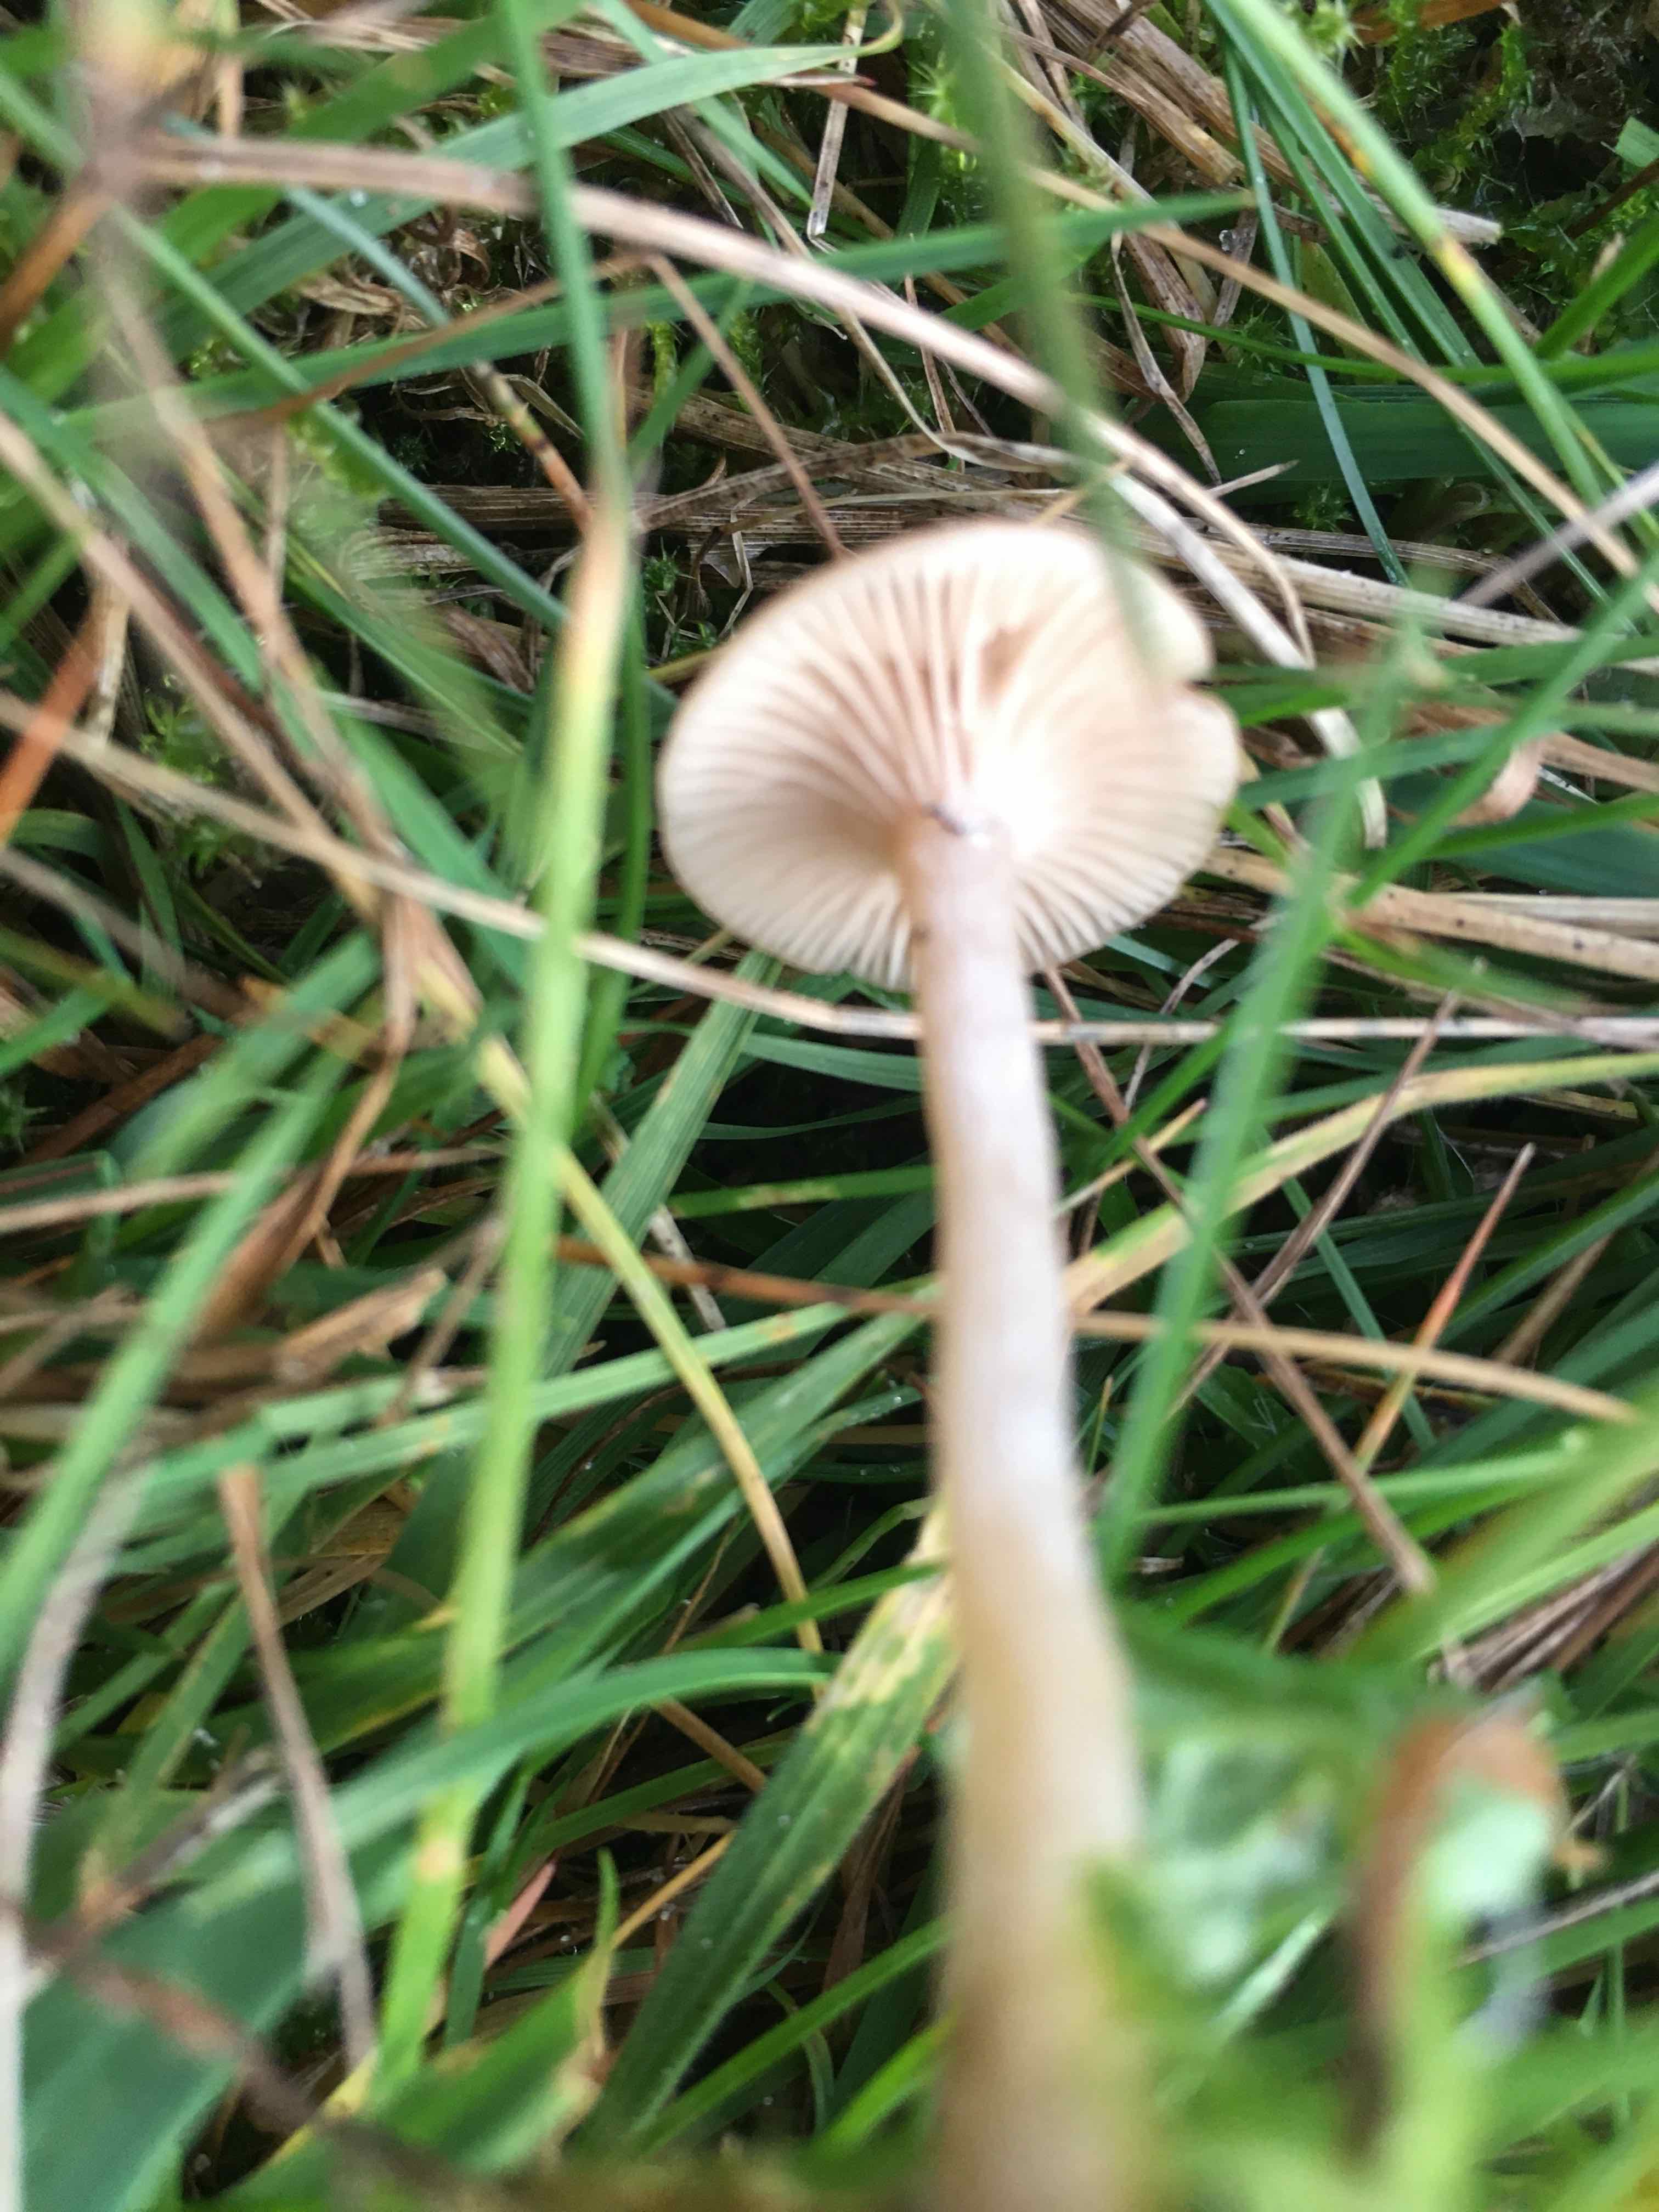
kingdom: Fungi
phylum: Basidiomycota
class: Agaricomycetes
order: Agaricales
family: Tricholomataceae
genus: Clitocybe
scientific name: Clitocybe
